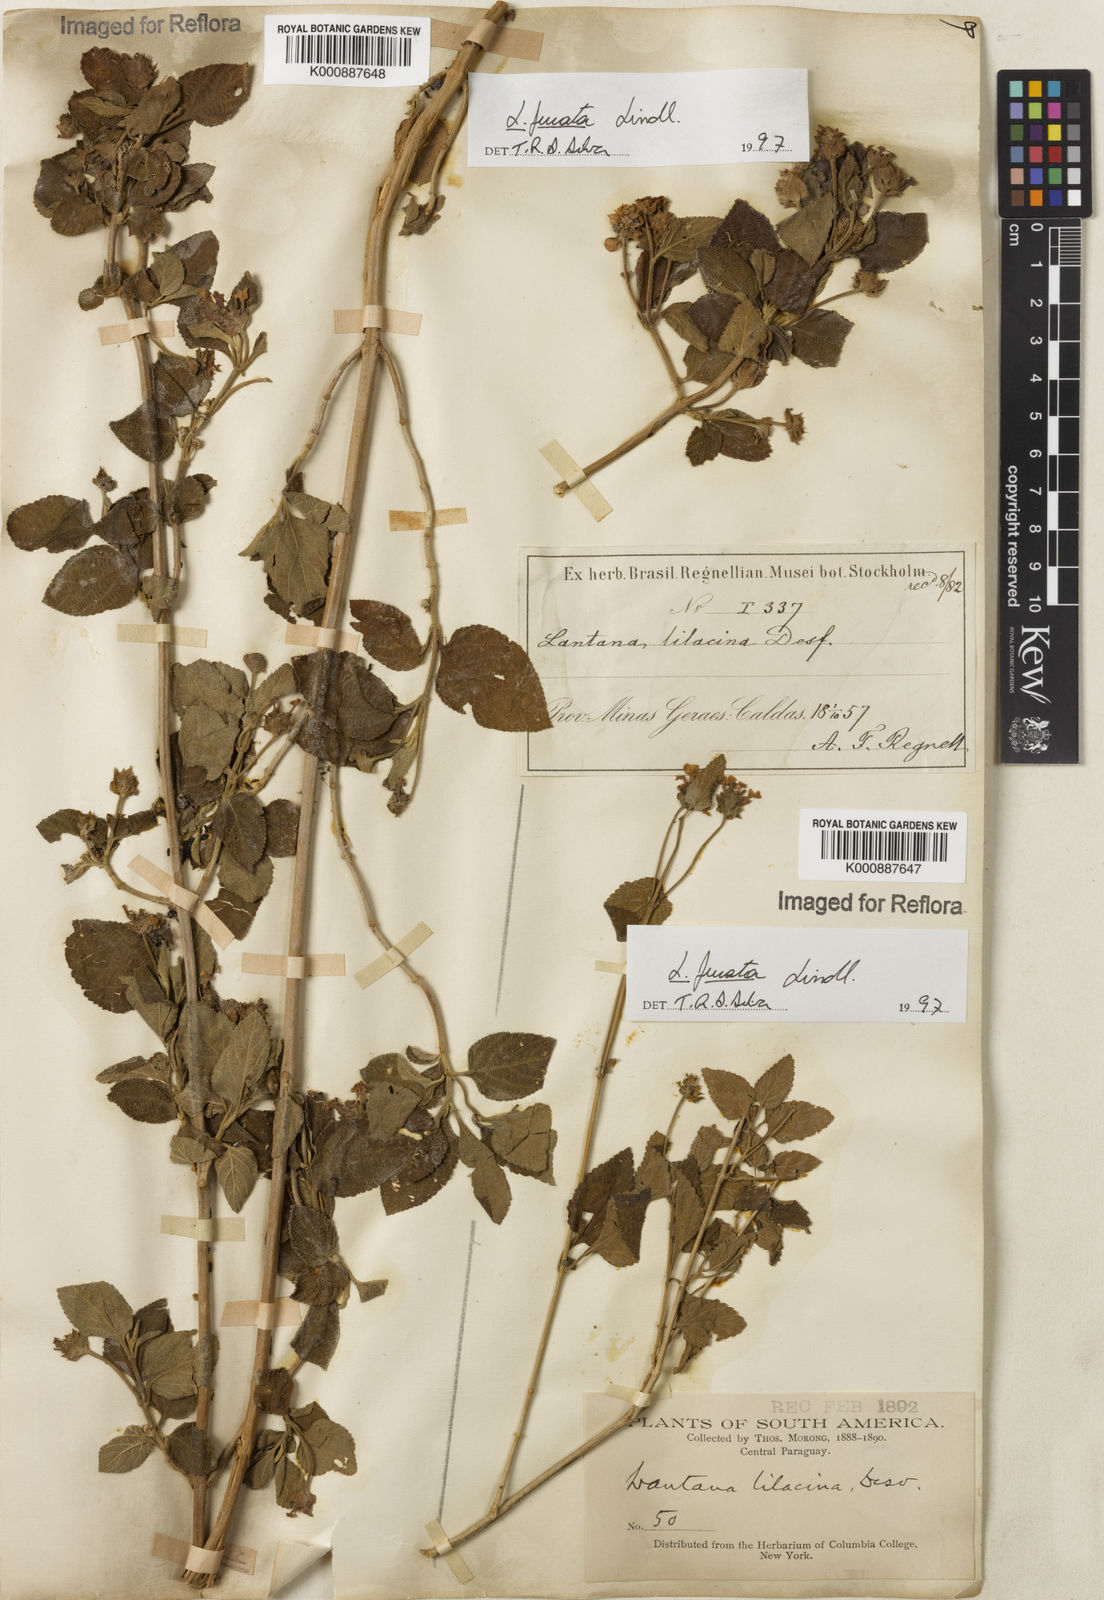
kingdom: Plantae
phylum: Tracheophyta
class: Magnoliopsida
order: Lamiales
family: Verbenaceae
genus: Lantana
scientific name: Lantana fucata
